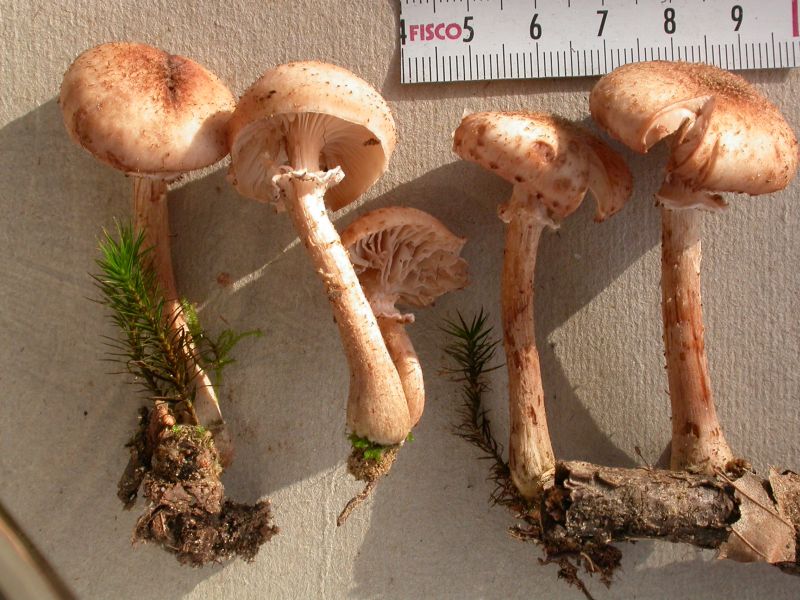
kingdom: Fungi
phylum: Basidiomycota
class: Agaricomycetes
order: Agaricales
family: Physalacriaceae
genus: Armillaria
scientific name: Armillaria
